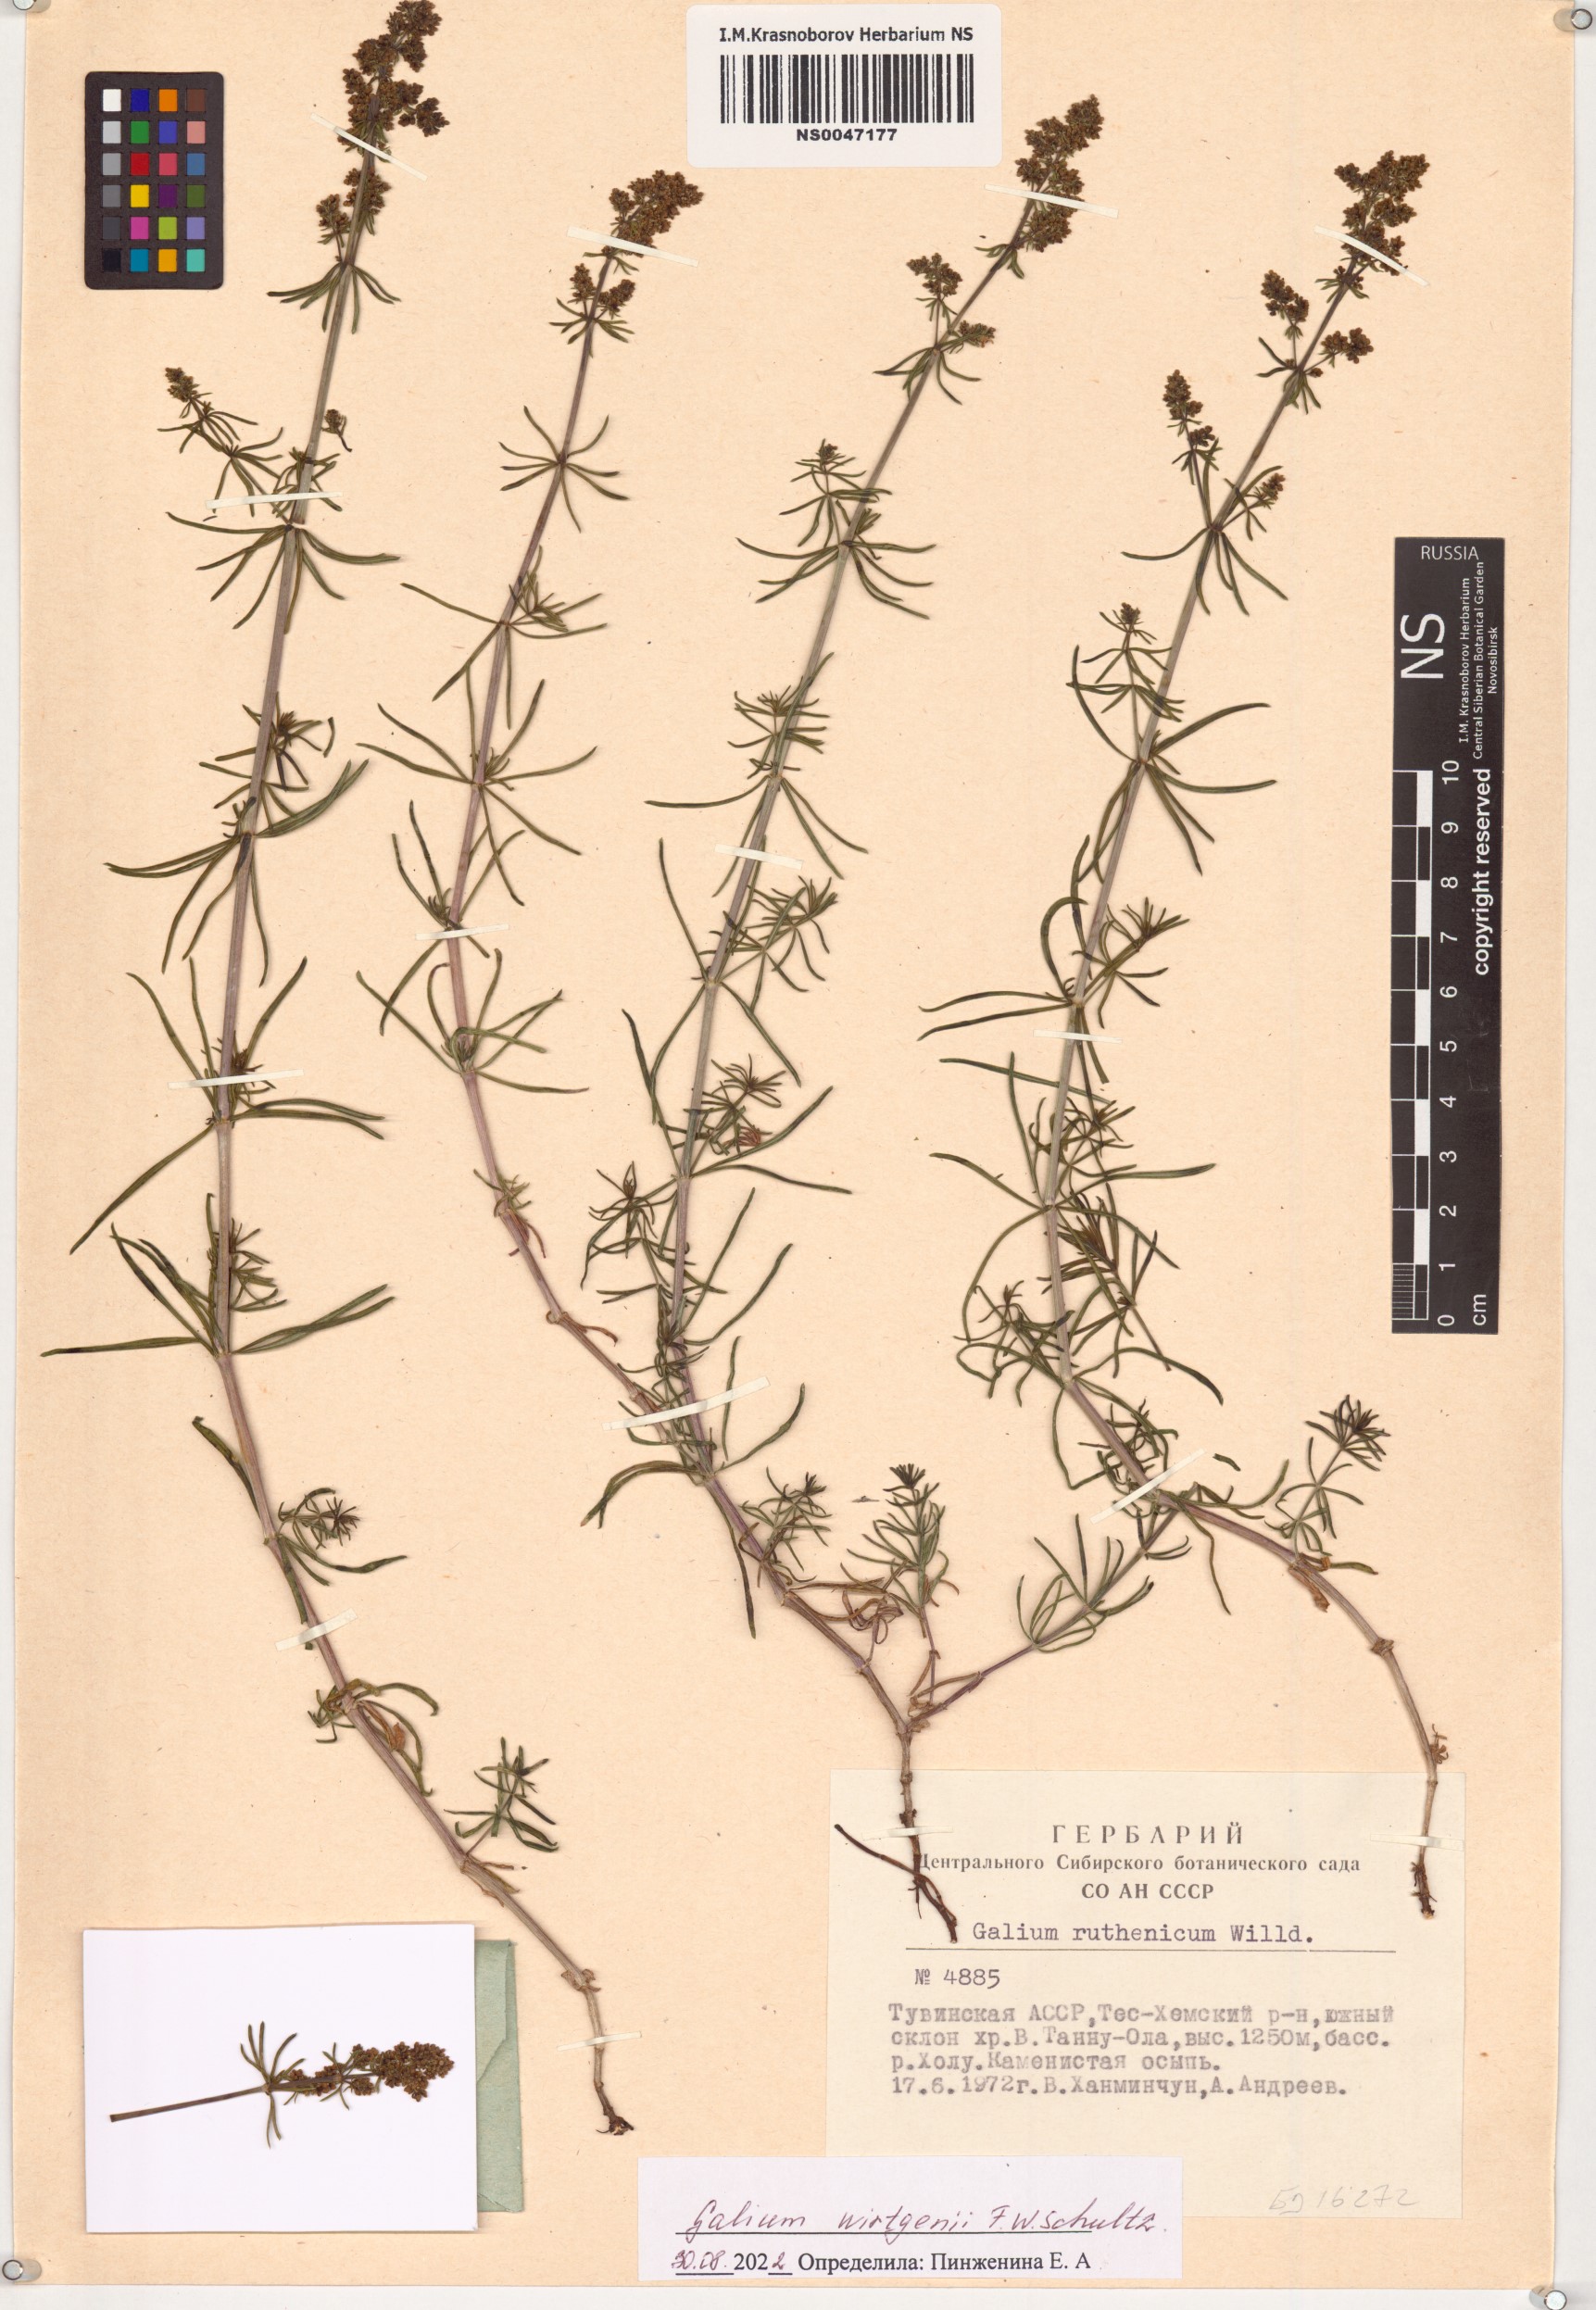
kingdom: Plantae
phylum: Tracheophyta
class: Magnoliopsida
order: Gentianales
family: Rubiaceae
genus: Galium
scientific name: Galium verum
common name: Lady's bedstraw
